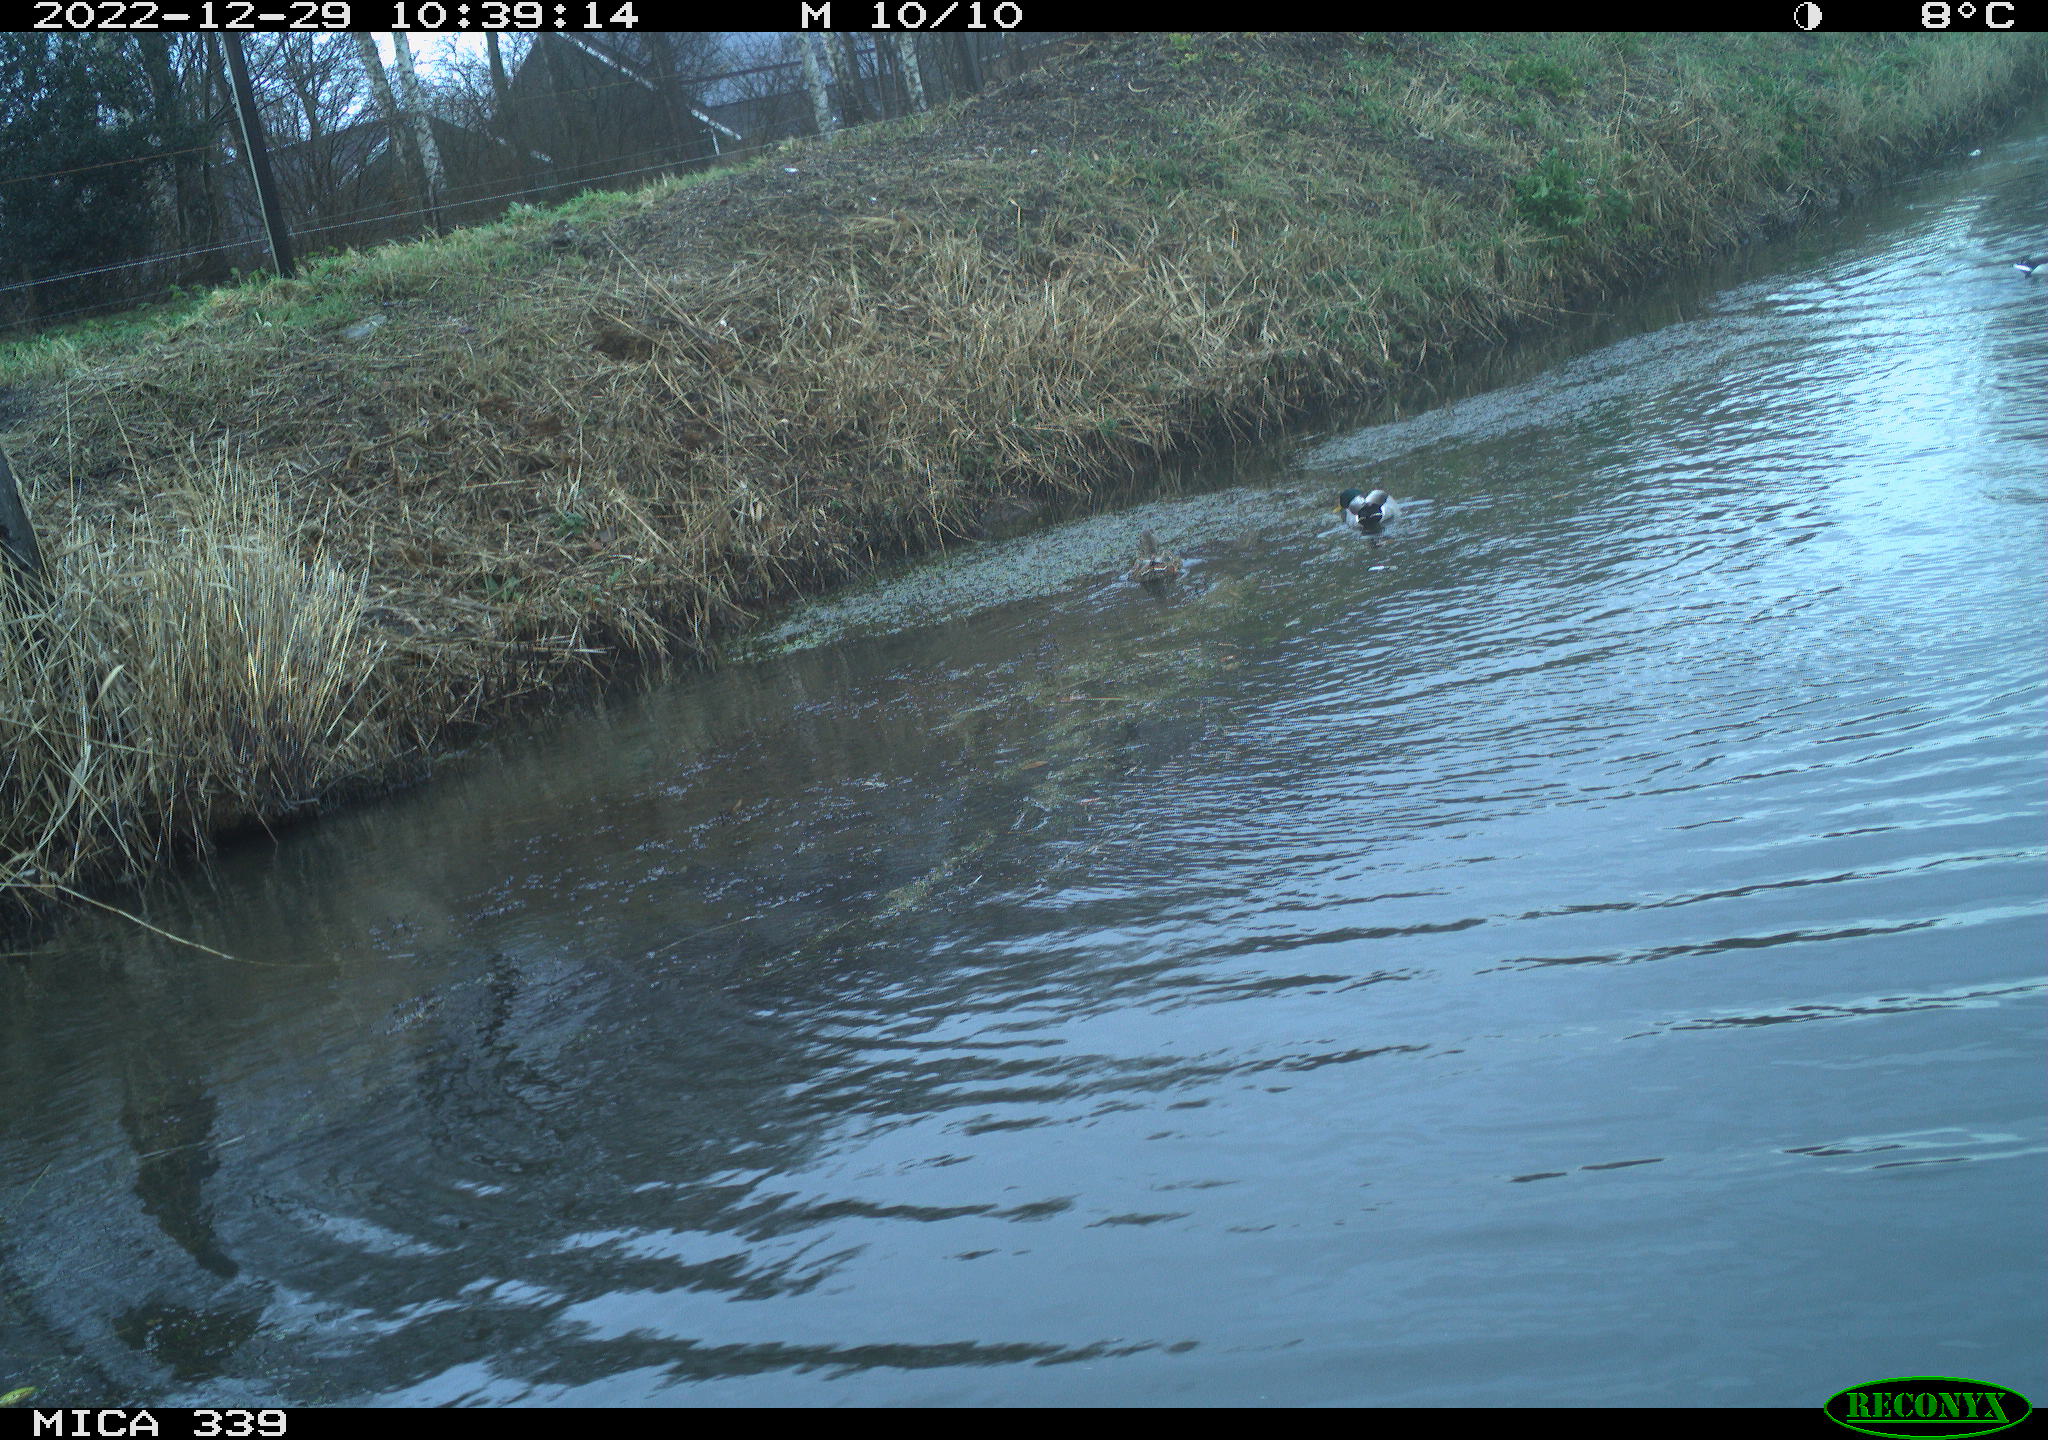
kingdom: Animalia
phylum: Chordata
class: Aves
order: Anseriformes
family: Anatidae
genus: Anas
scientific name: Anas
